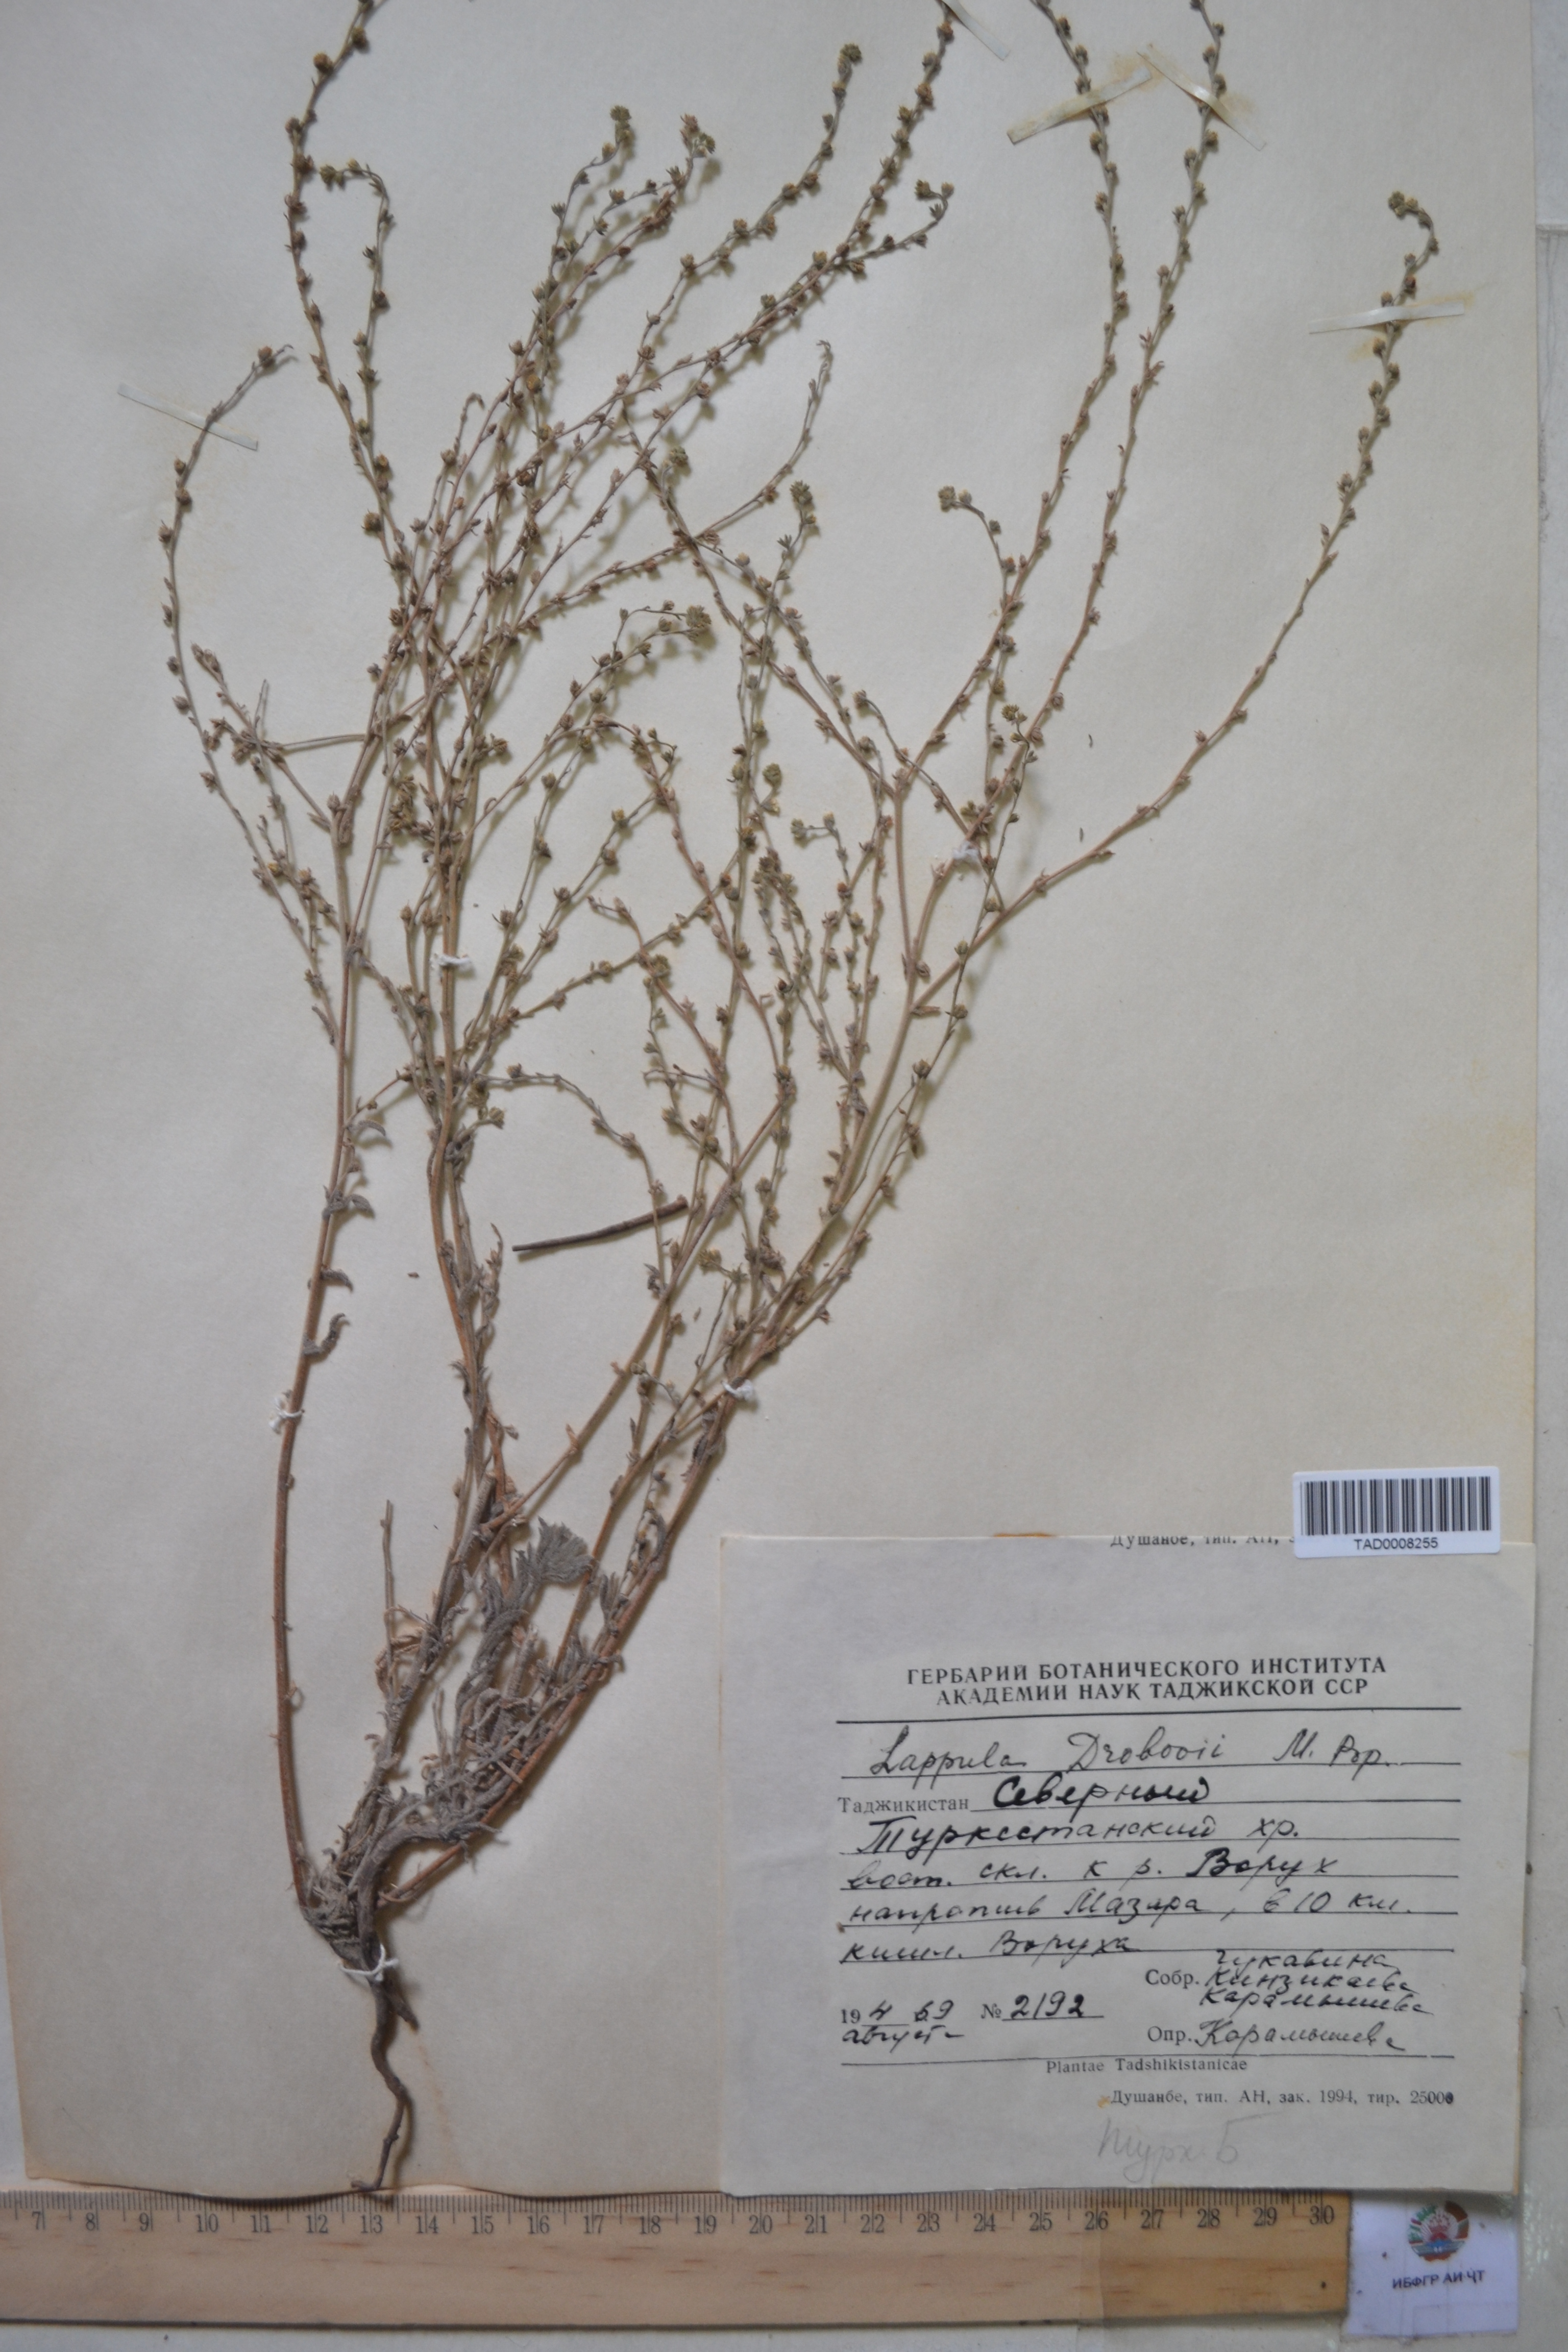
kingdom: Plantae
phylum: Tracheophyta
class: Magnoliopsida
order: Boraginales
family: Boraginaceae
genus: Rochelia
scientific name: Rochelia drobovii
